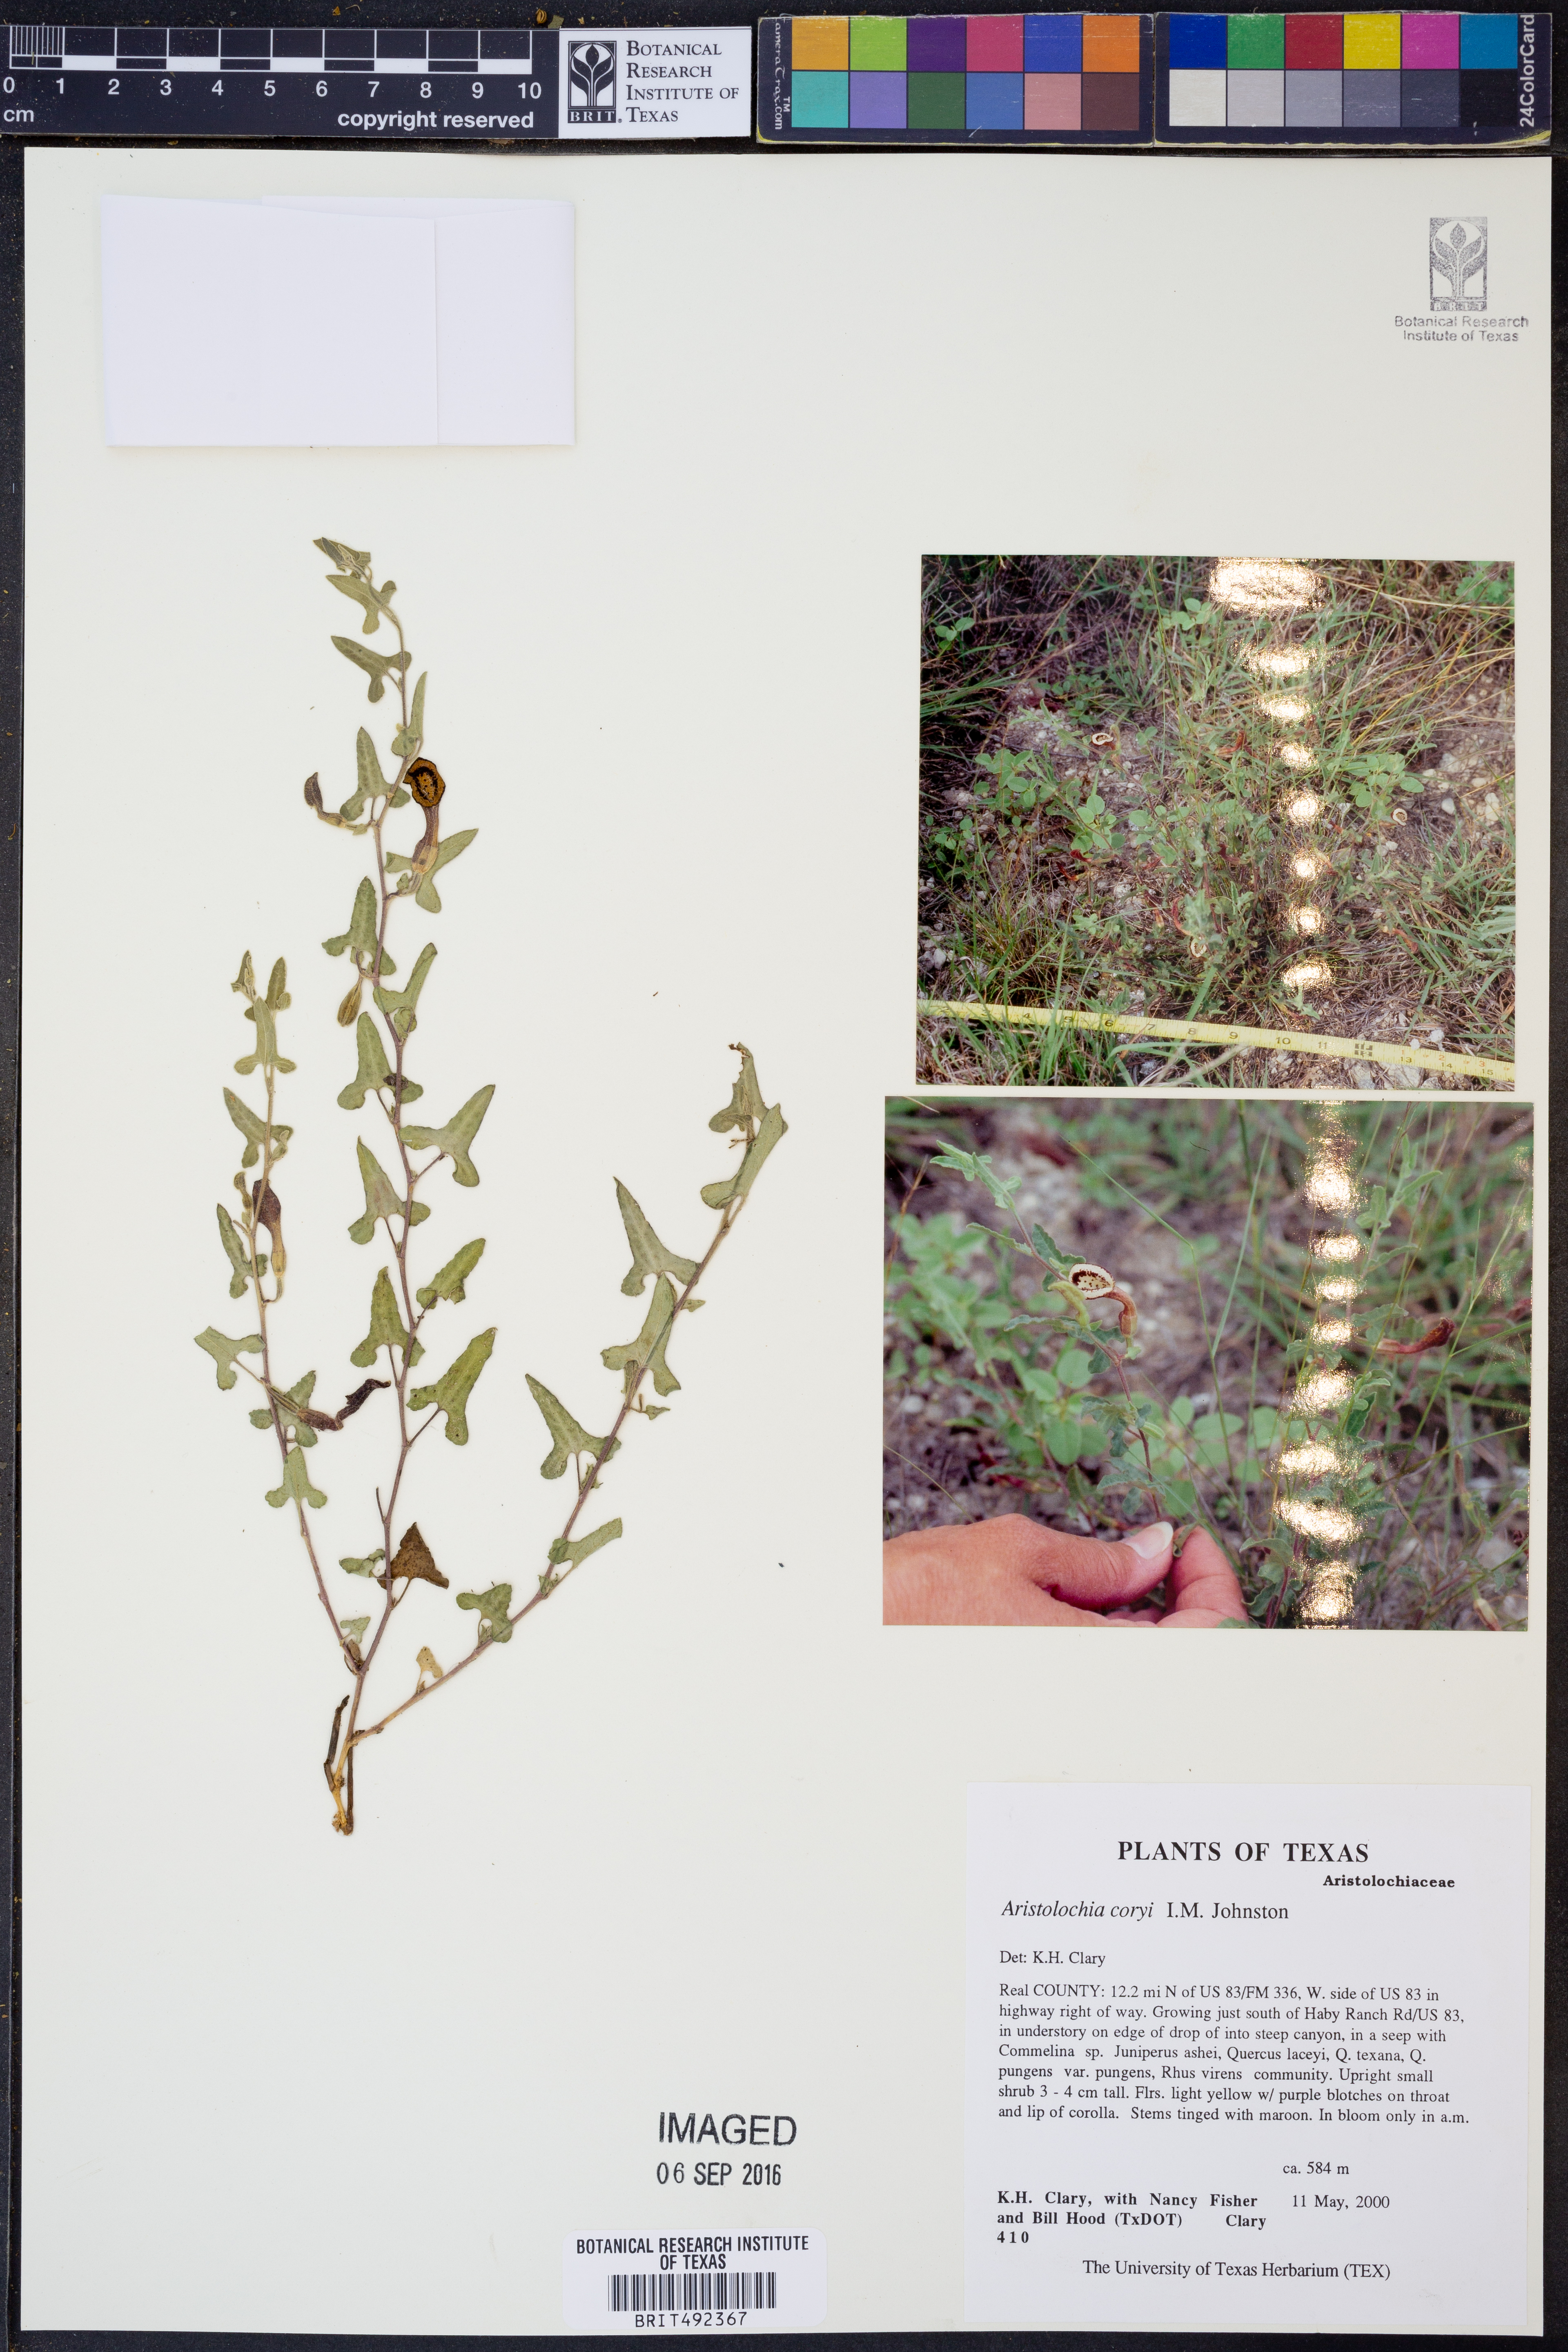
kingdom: Plantae
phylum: Tracheophyta
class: Magnoliopsida
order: Piperales
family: Aristolochiaceae
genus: Aristolochia
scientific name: Aristolochia coryi
